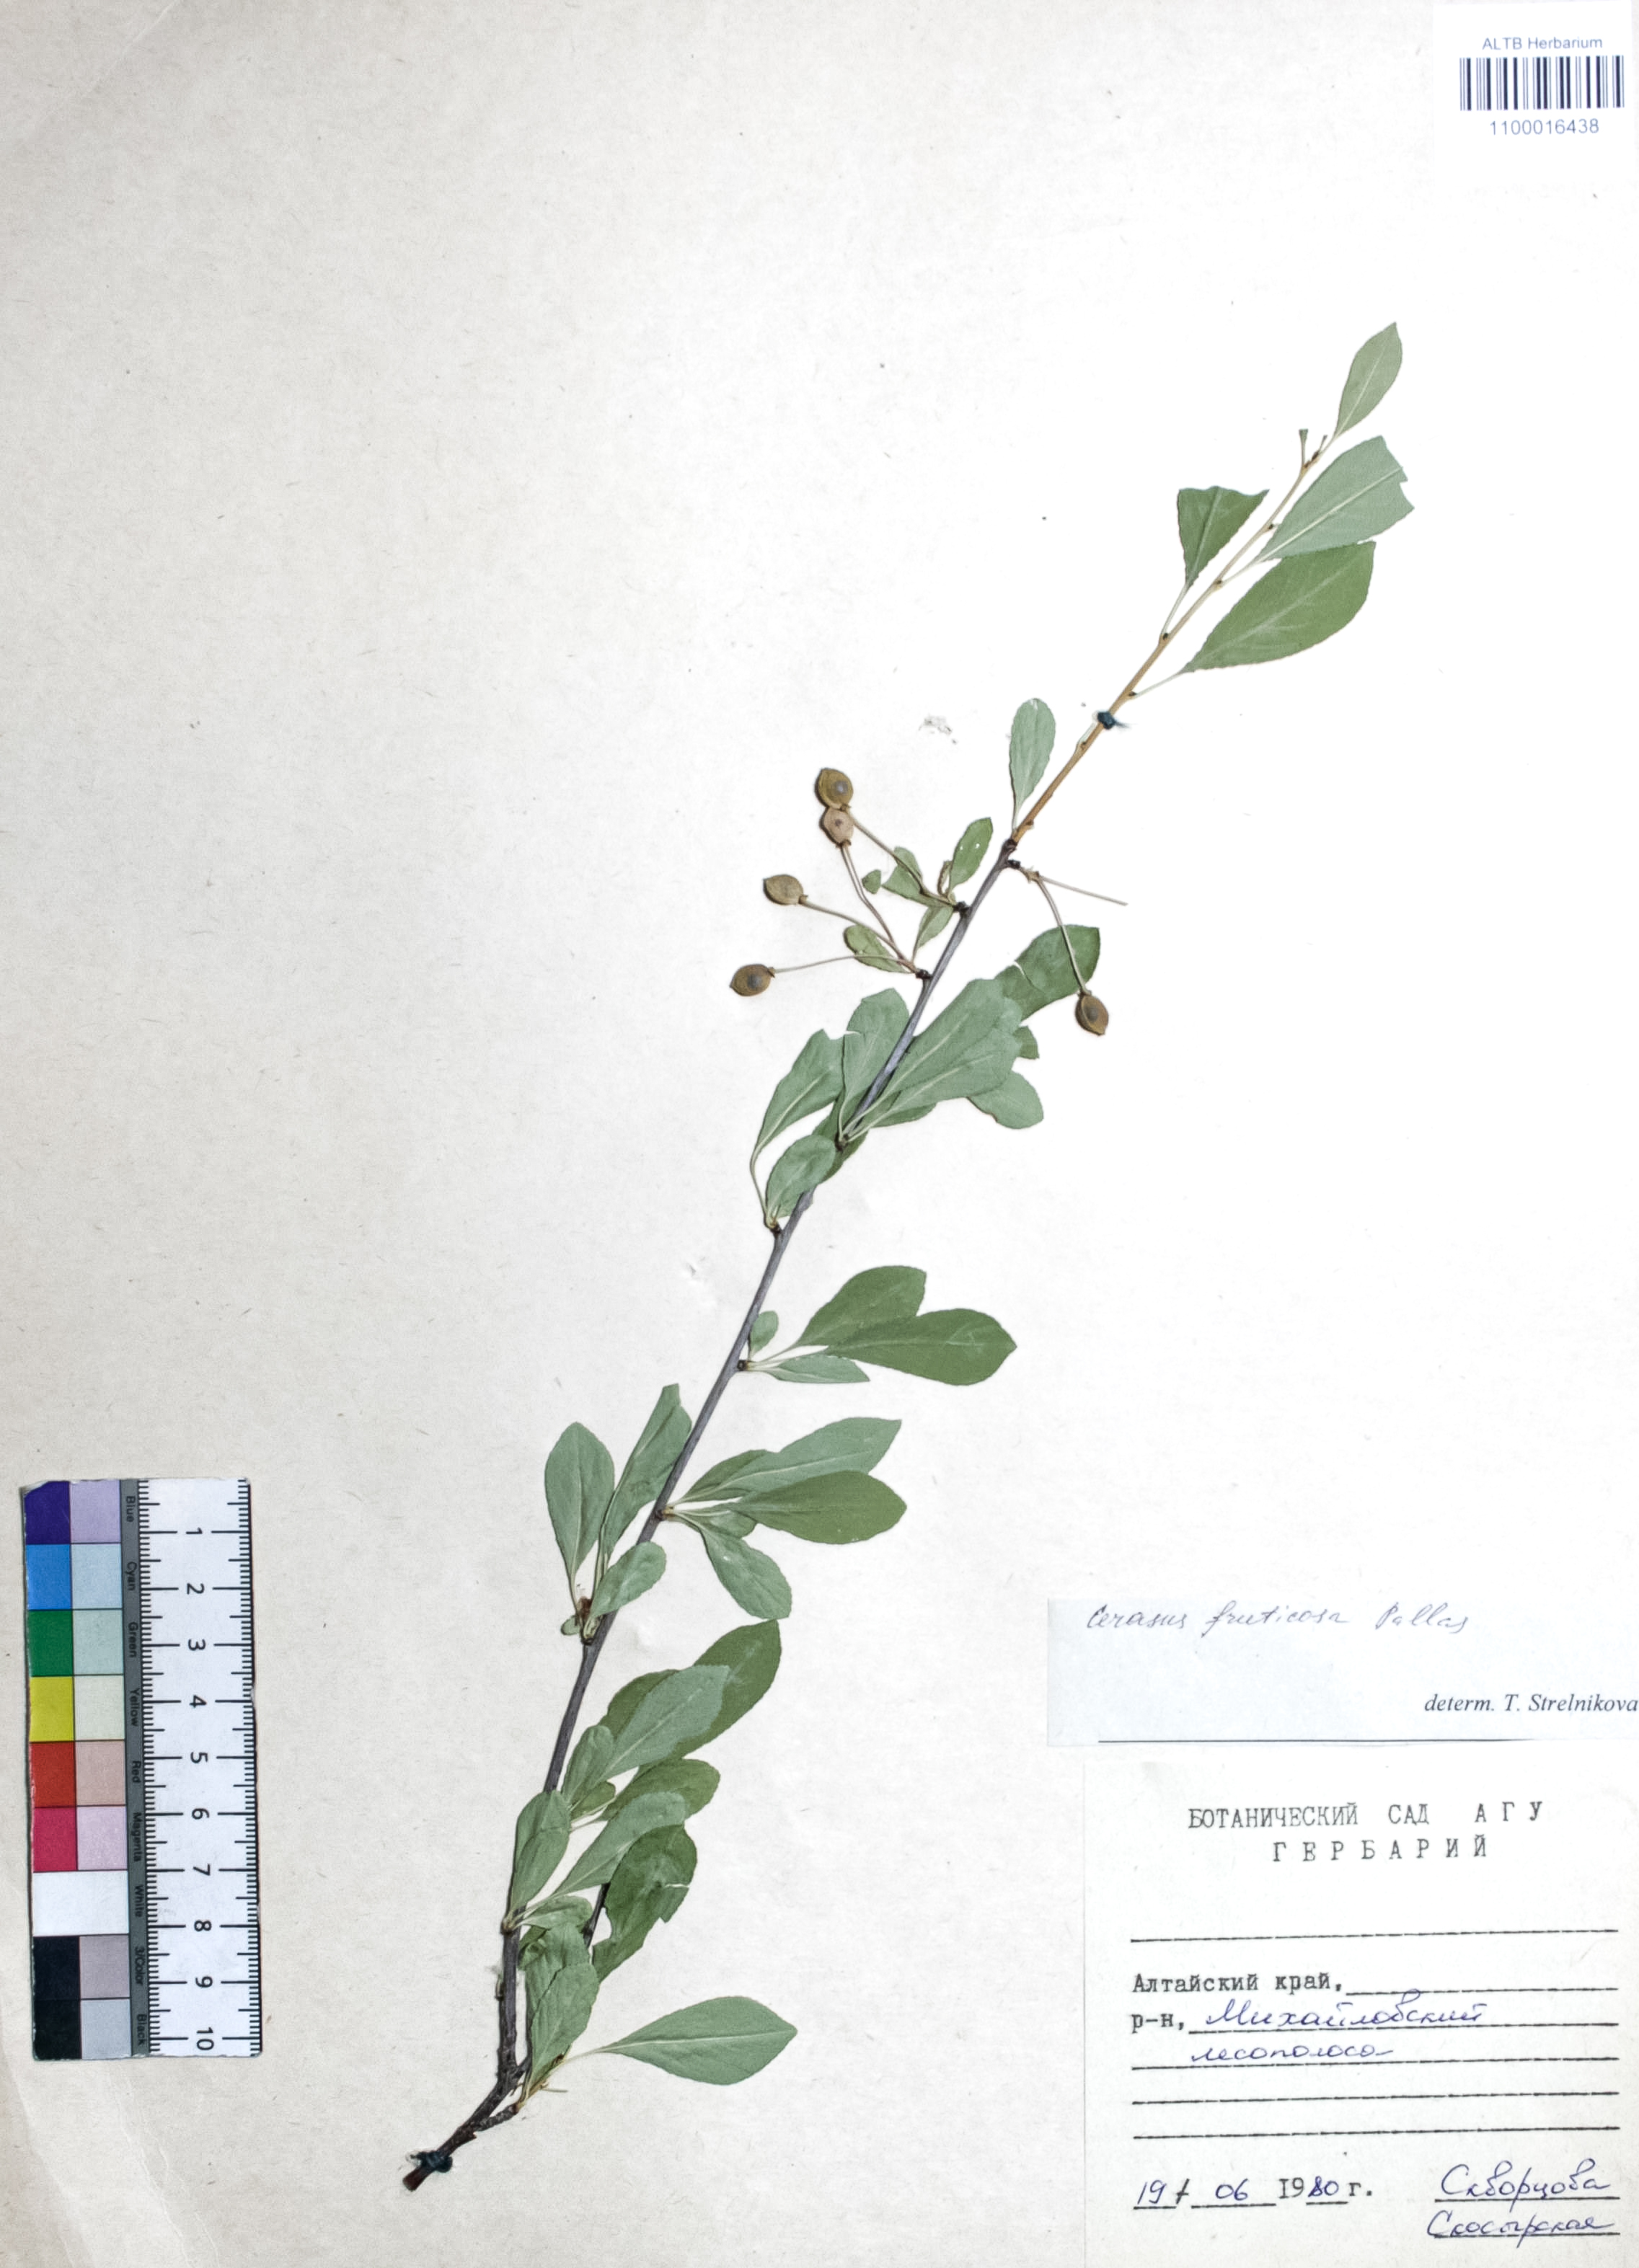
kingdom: Plantae
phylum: Tracheophyta
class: Magnoliopsida
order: Rosales
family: Rosaceae
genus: Prunus
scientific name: Prunus cerasus
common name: Morello cherry
